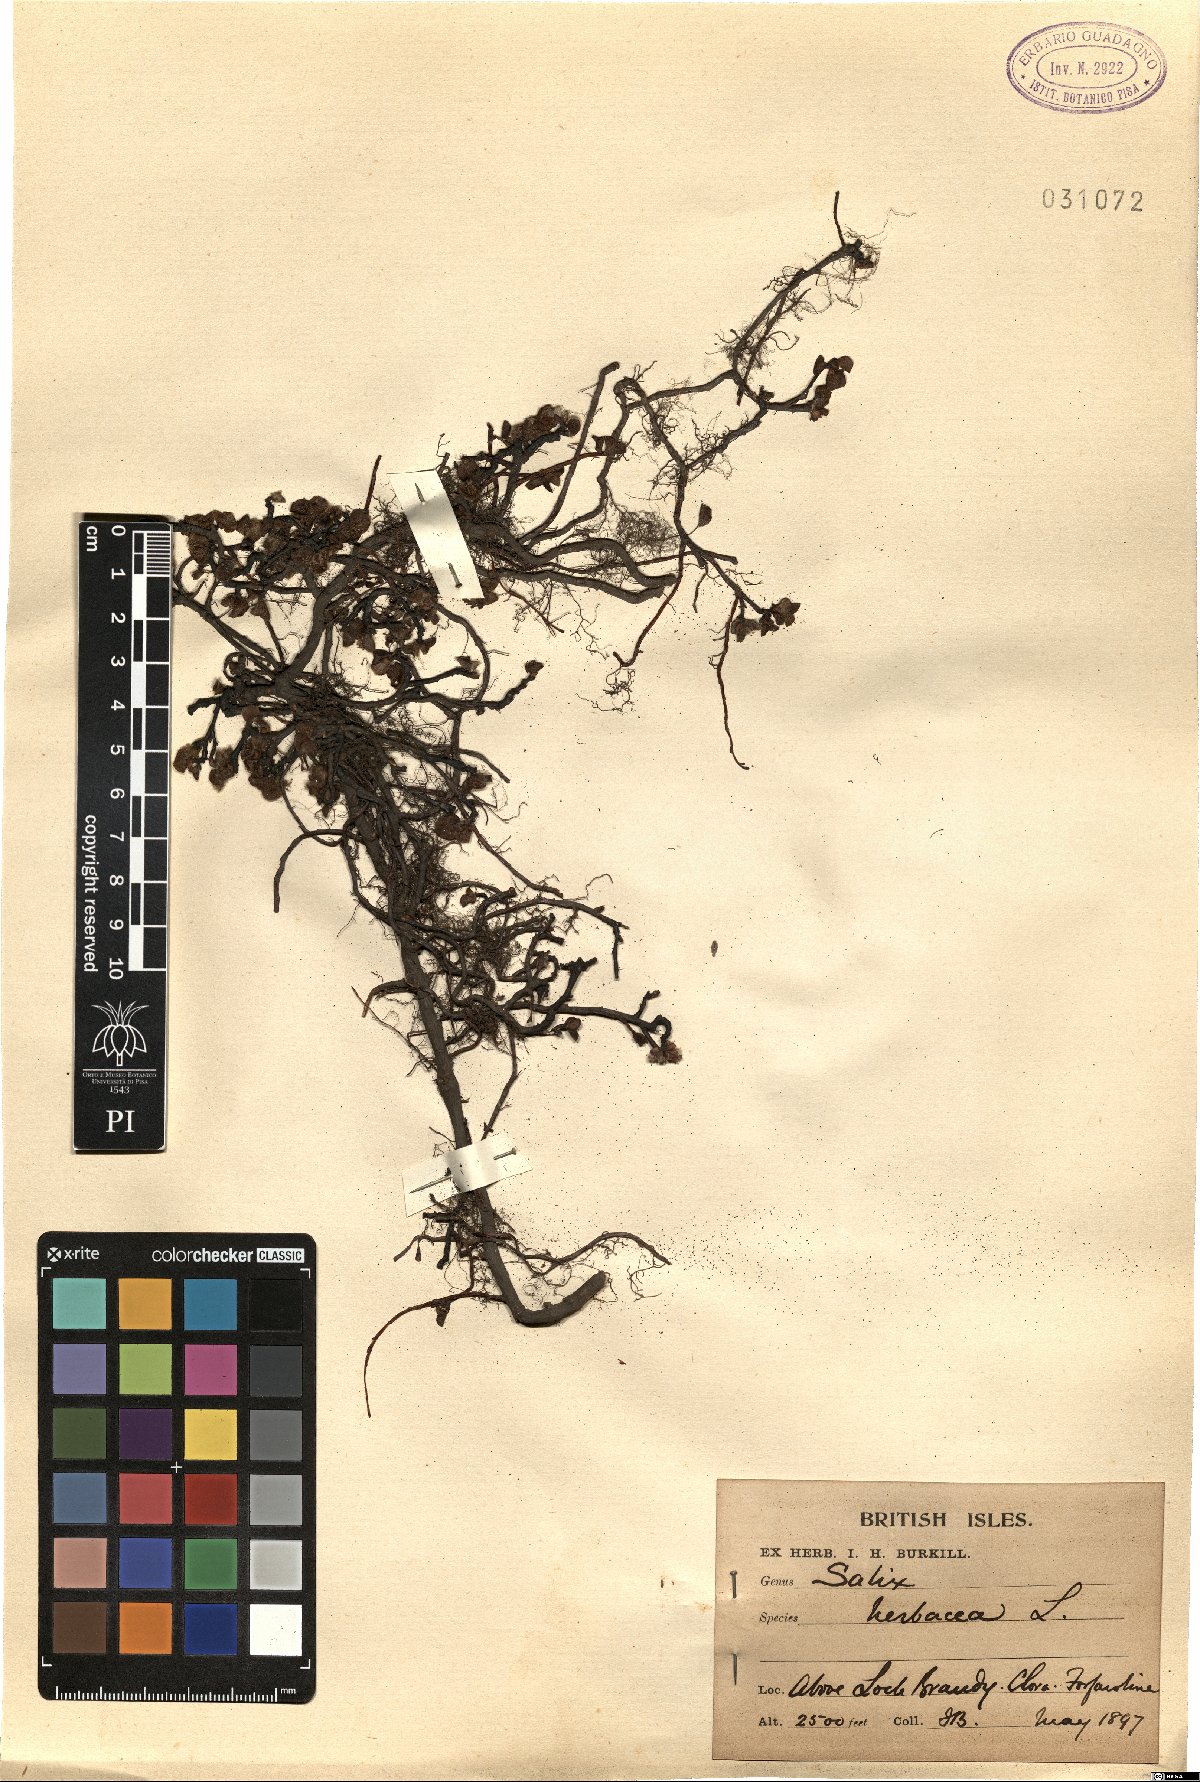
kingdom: Plantae
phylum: Tracheophyta
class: Magnoliopsida
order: Malpighiales
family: Salicaceae
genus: Salix
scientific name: Salix herbacea
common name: Dwarf willow
